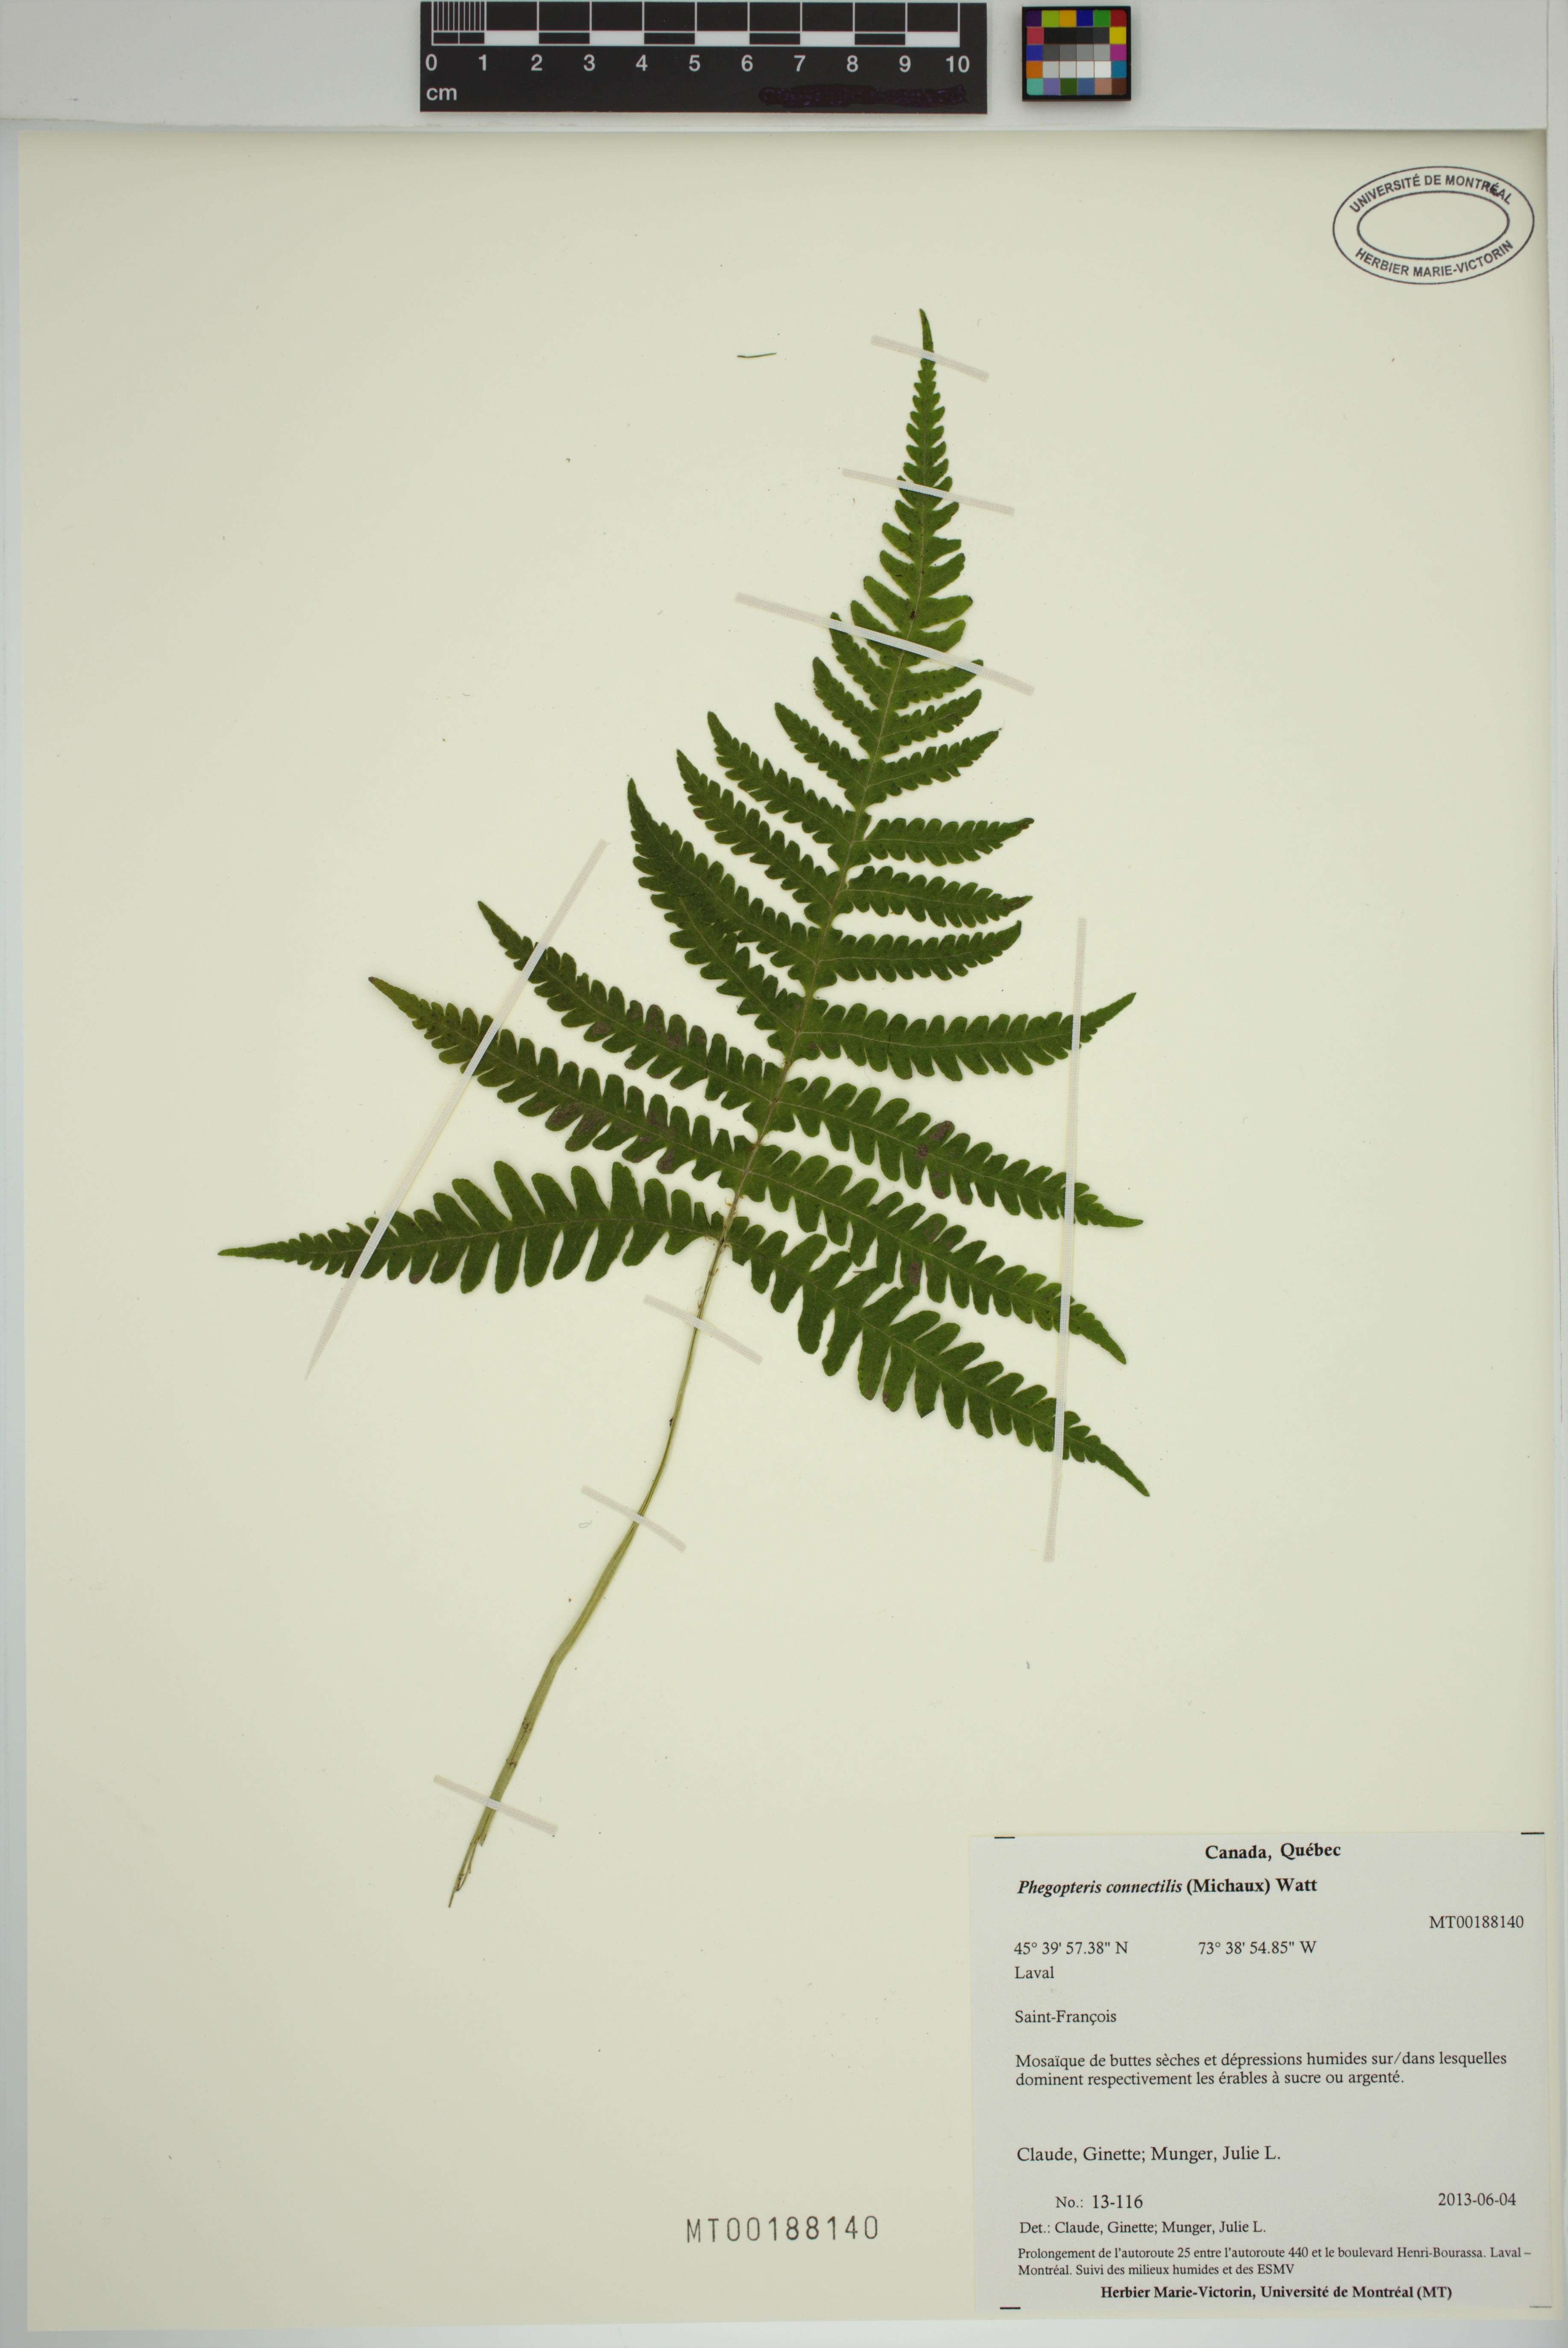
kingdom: Plantae
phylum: Tracheophyta
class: Polypodiopsida
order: Polypodiales
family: Thelypteridaceae
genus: Phegopteris
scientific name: Phegopteris
